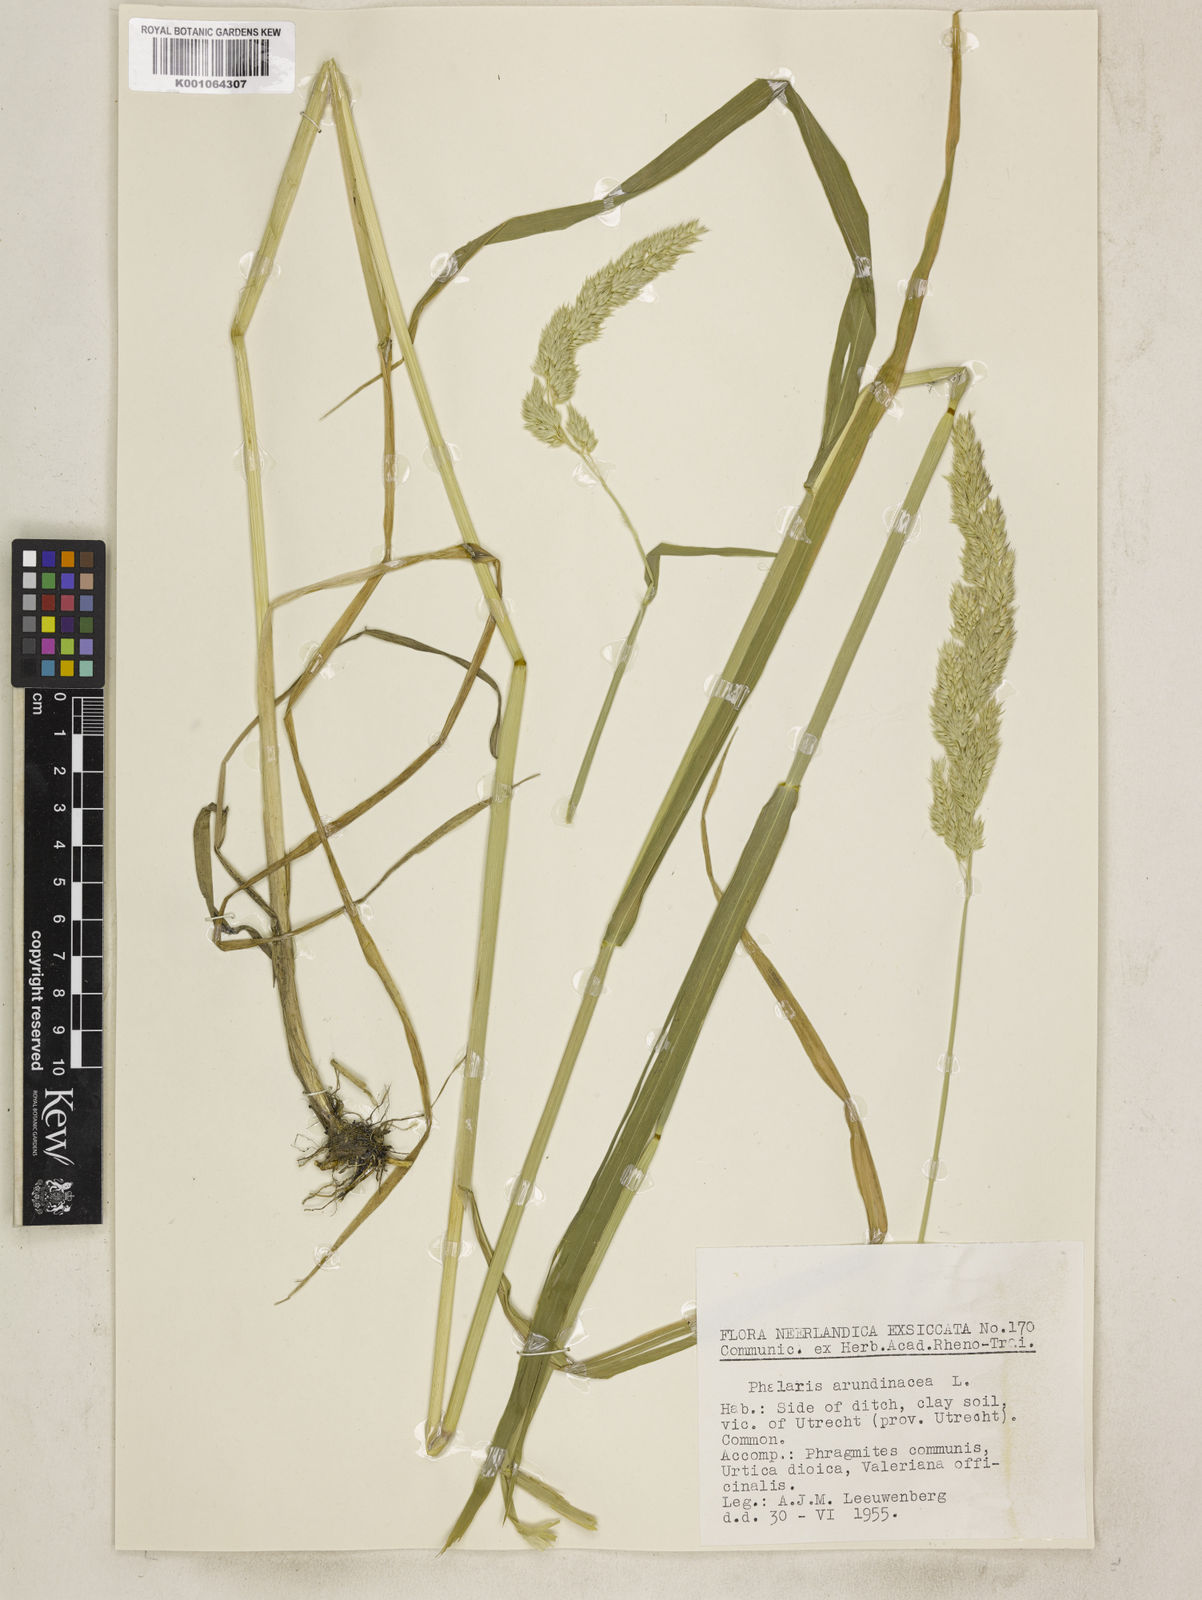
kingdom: Plantae
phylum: Tracheophyta
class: Liliopsida
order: Poales
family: Poaceae
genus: Phalaris
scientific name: Phalaris arundinacea
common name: Reed canary-grass
